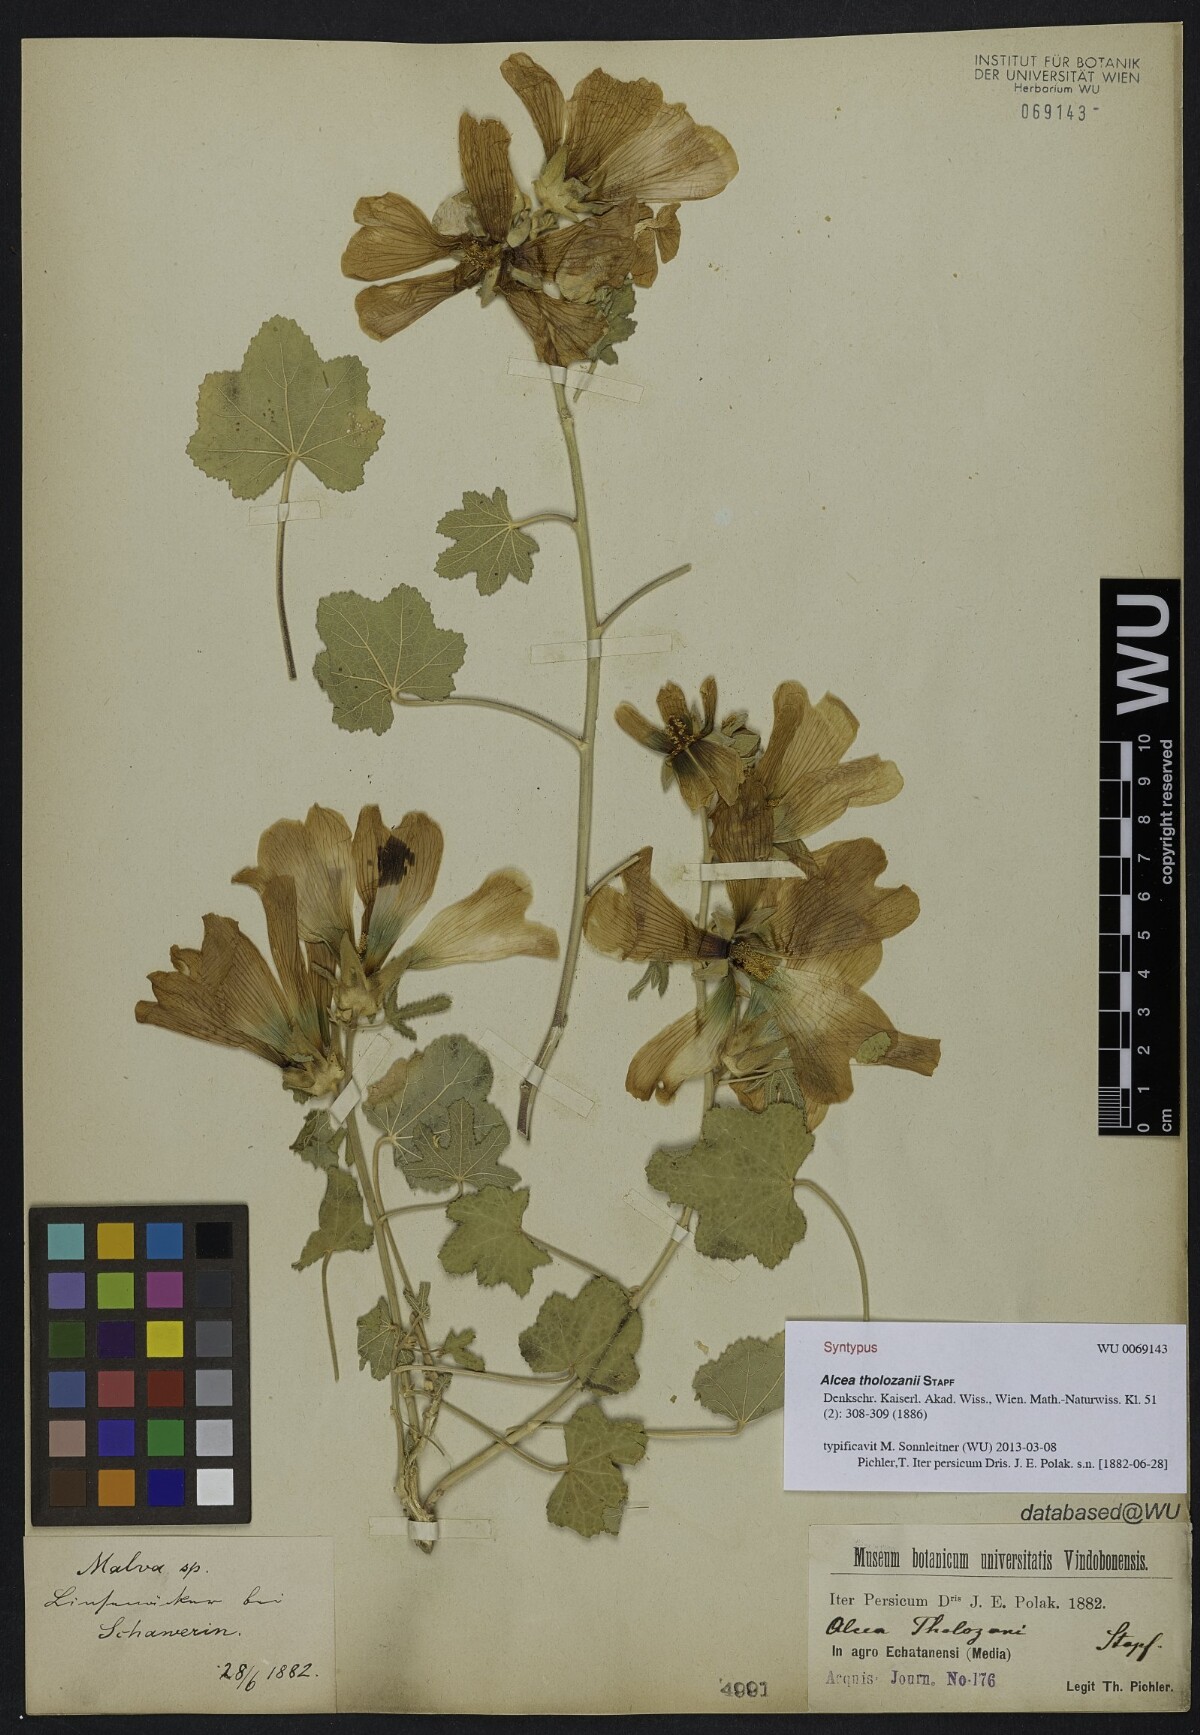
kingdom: Plantae
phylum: Tracheophyta
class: Magnoliopsida
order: Malvales
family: Malvaceae
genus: Alcea
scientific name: Alcea tholozani
